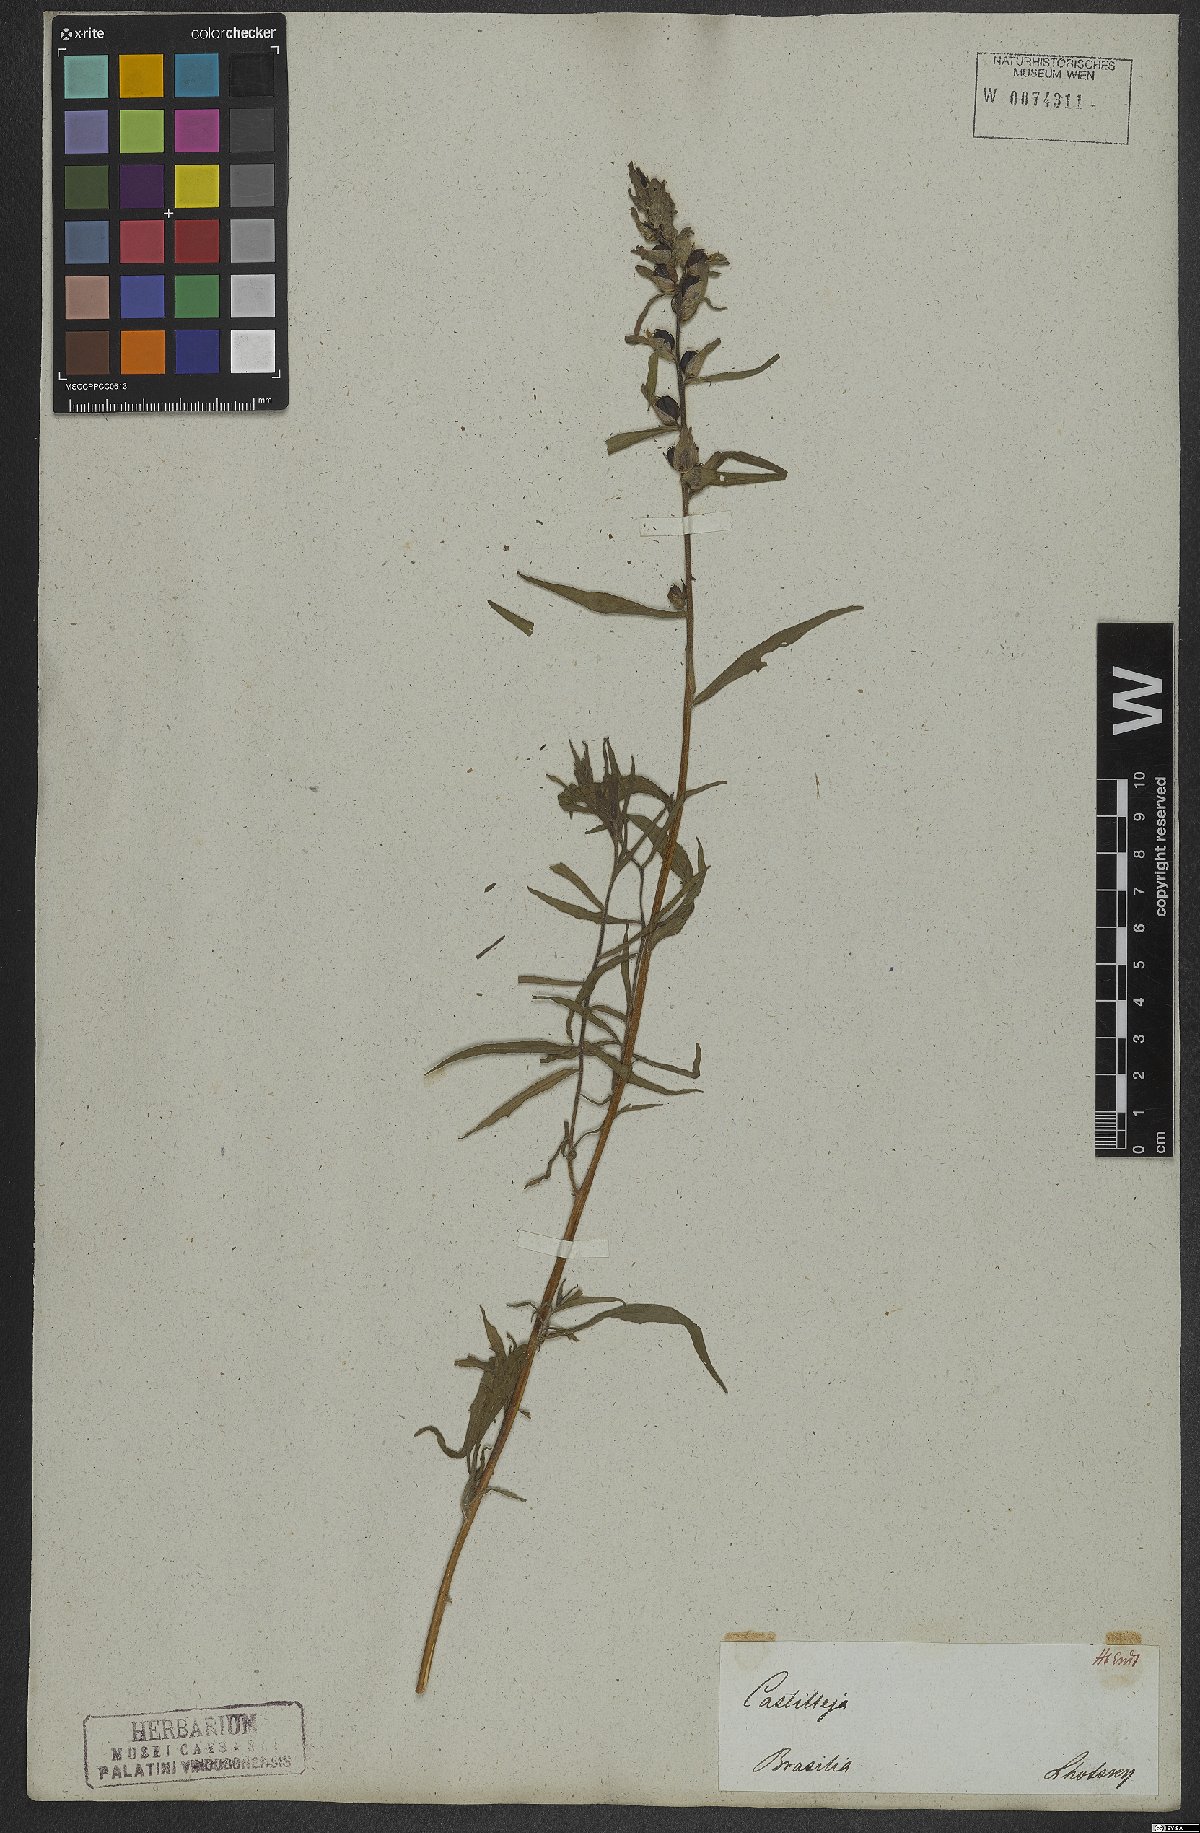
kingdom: Plantae
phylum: Tracheophyta
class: Magnoliopsida
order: Lamiales
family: Orobanchaceae
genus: Castilleja
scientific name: Castilleja arvensis
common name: Indian paintbrush
